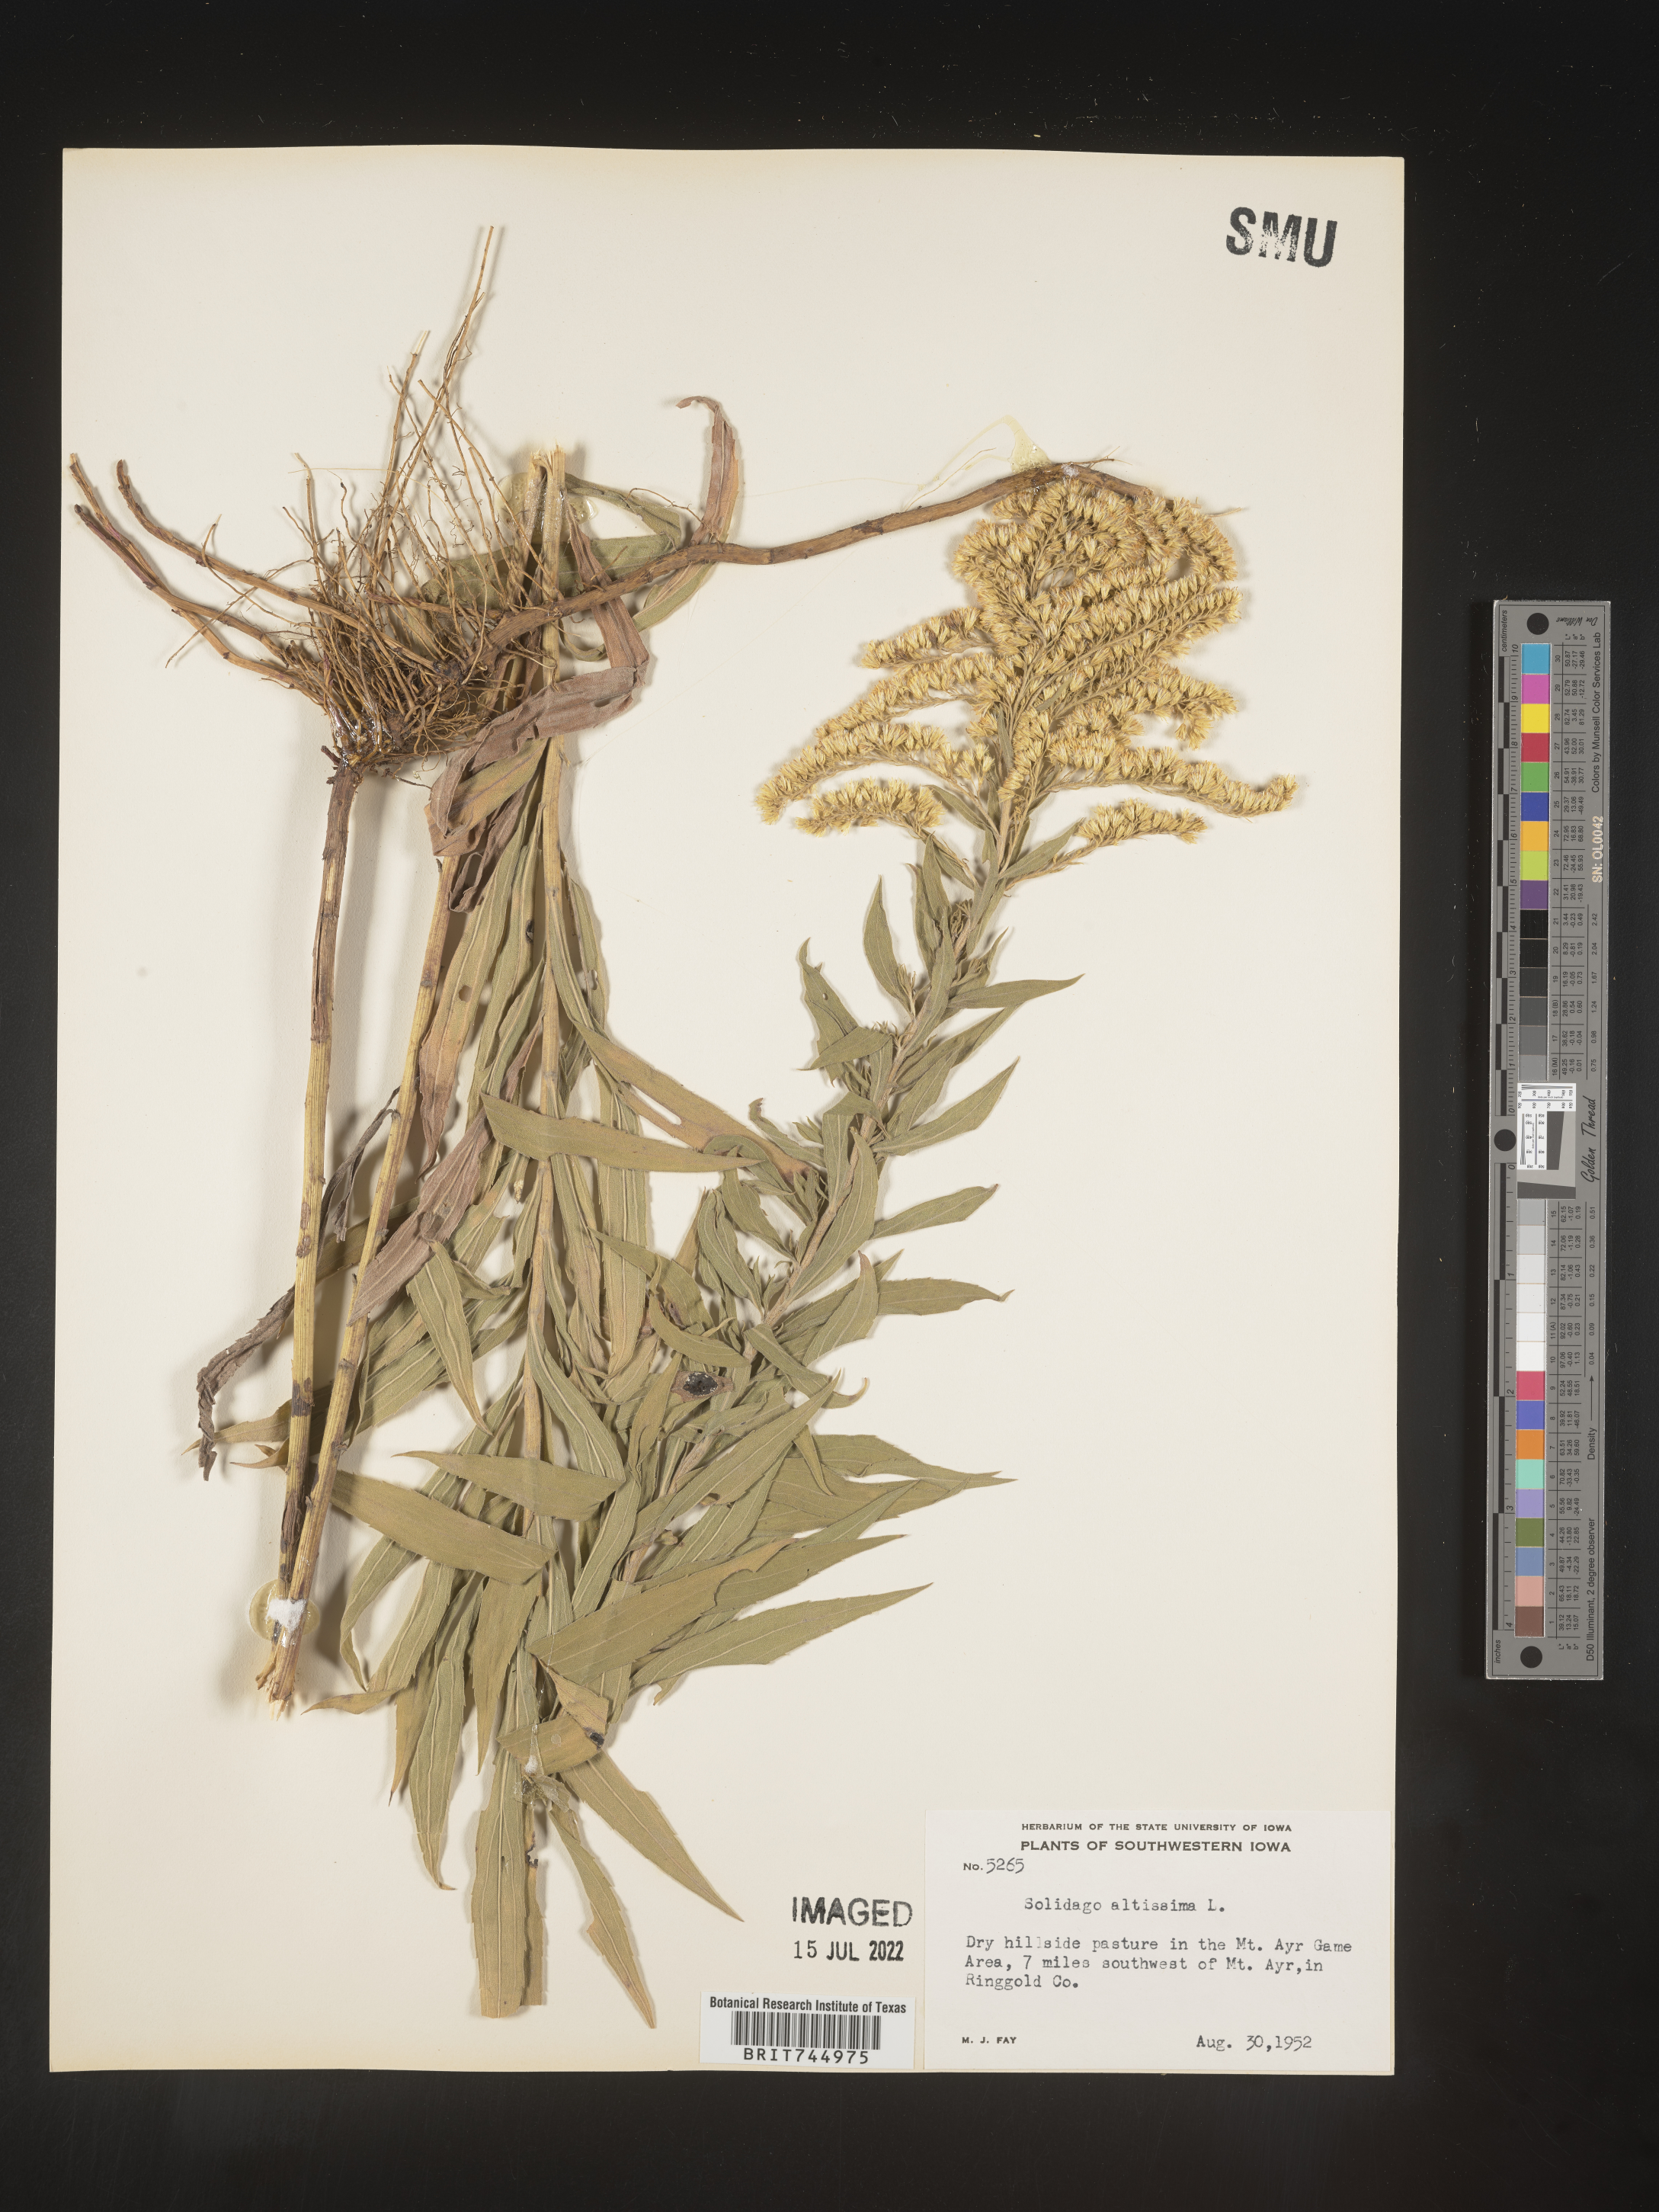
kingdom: Plantae
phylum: Tracheophyta
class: Magnoliopsida
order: Asterales
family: Asteraceae
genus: Solidago
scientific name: Solidago canadensis
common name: Canada goldenrod
